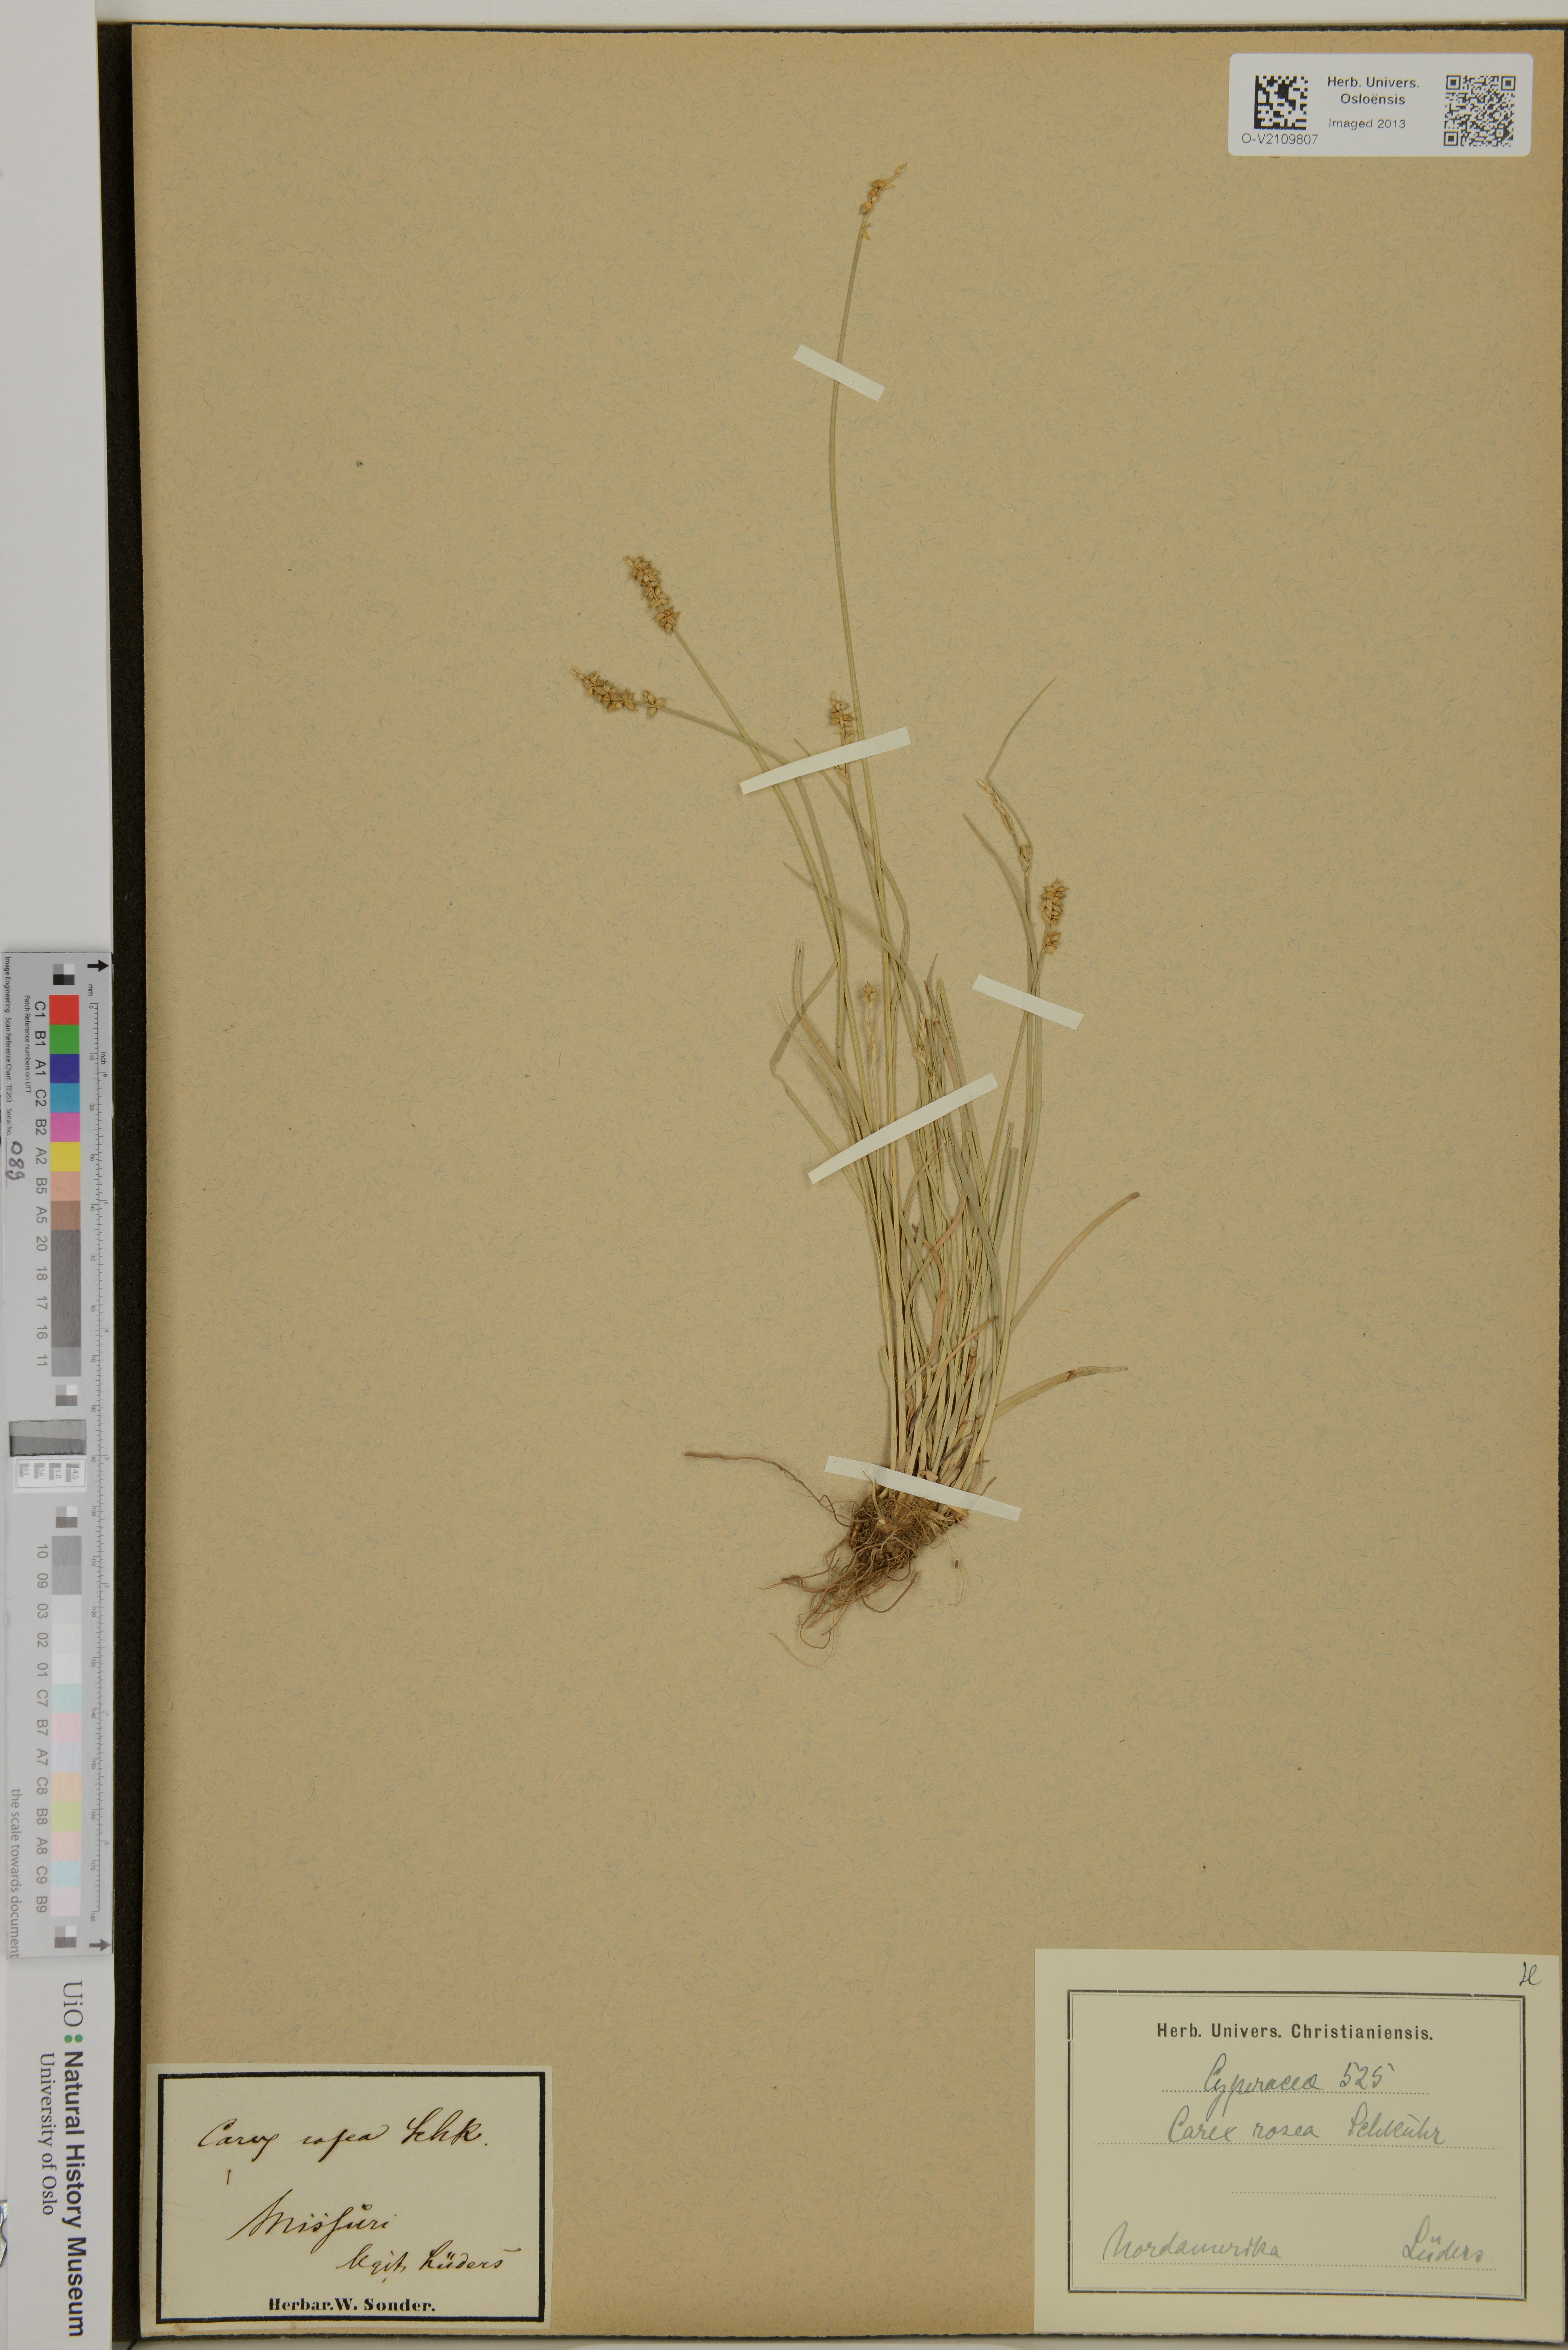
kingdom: Plantae
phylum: Tracheophyta
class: Liliopsida
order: Poales
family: Cyperaceae
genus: Carex
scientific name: Carex rosea
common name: Curly-styled wood sedge
